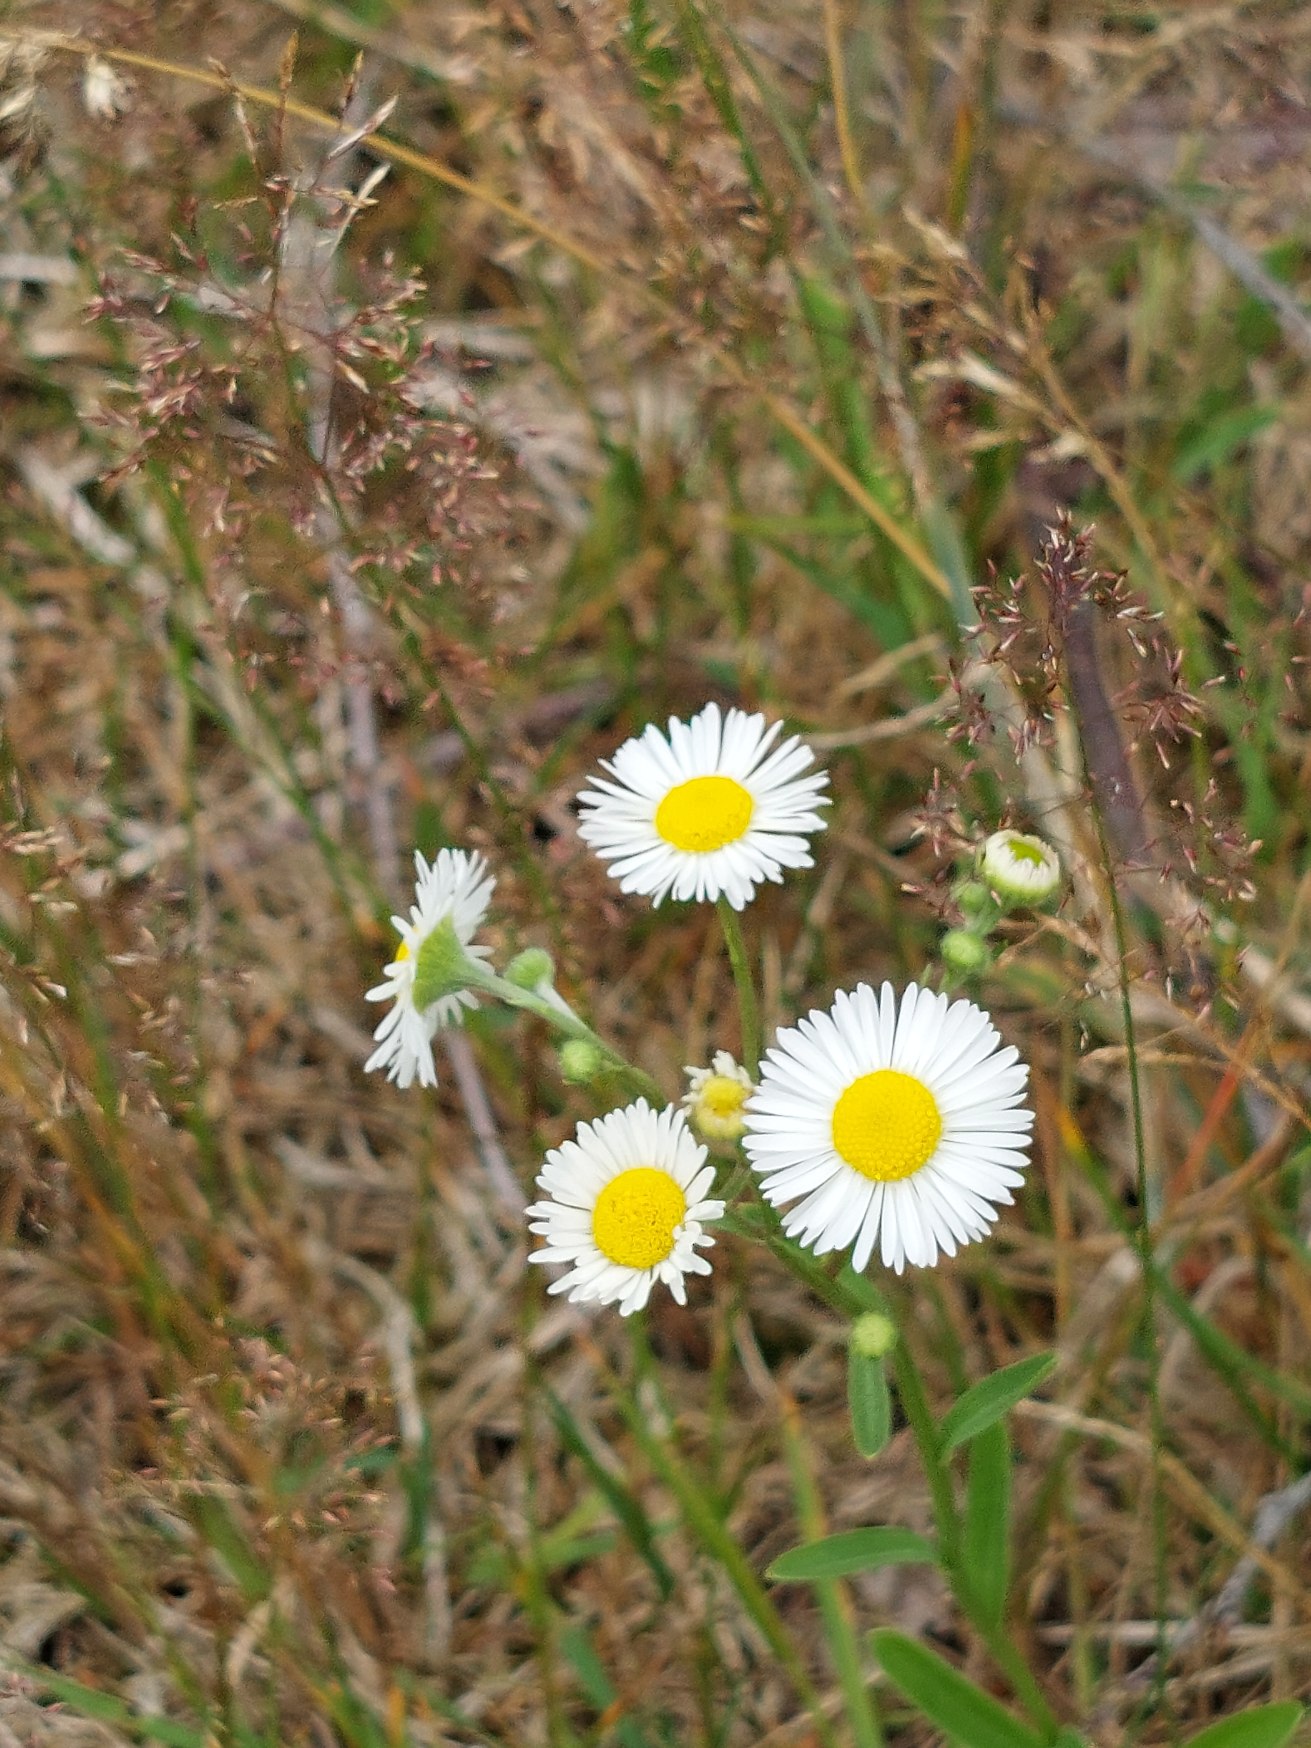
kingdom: Plantae
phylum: Tracheophyta
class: Magnoliopsida
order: Asterales
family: Asteraceae
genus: Erigeron
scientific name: Erigeron annuus
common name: Smalstråle
